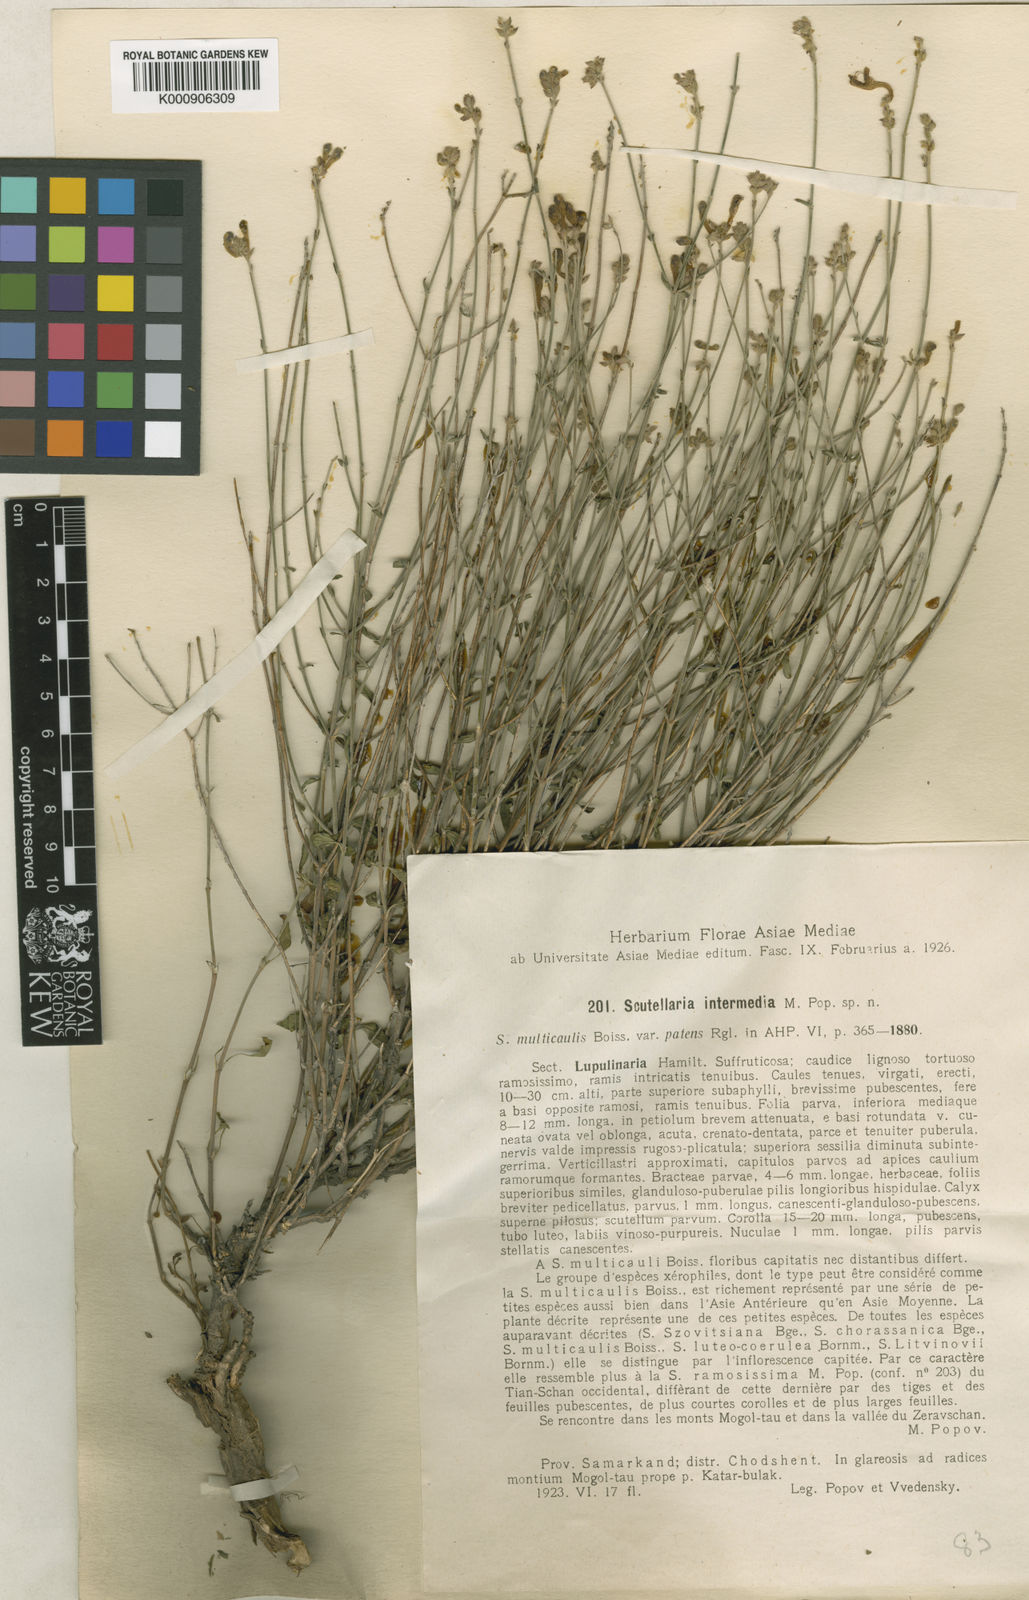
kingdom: Plantae
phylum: Tracheophyta
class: Magnoliopsida
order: Lamiales
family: Lamiaceae
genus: Scutellaria
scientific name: Scutellaria intermedia
